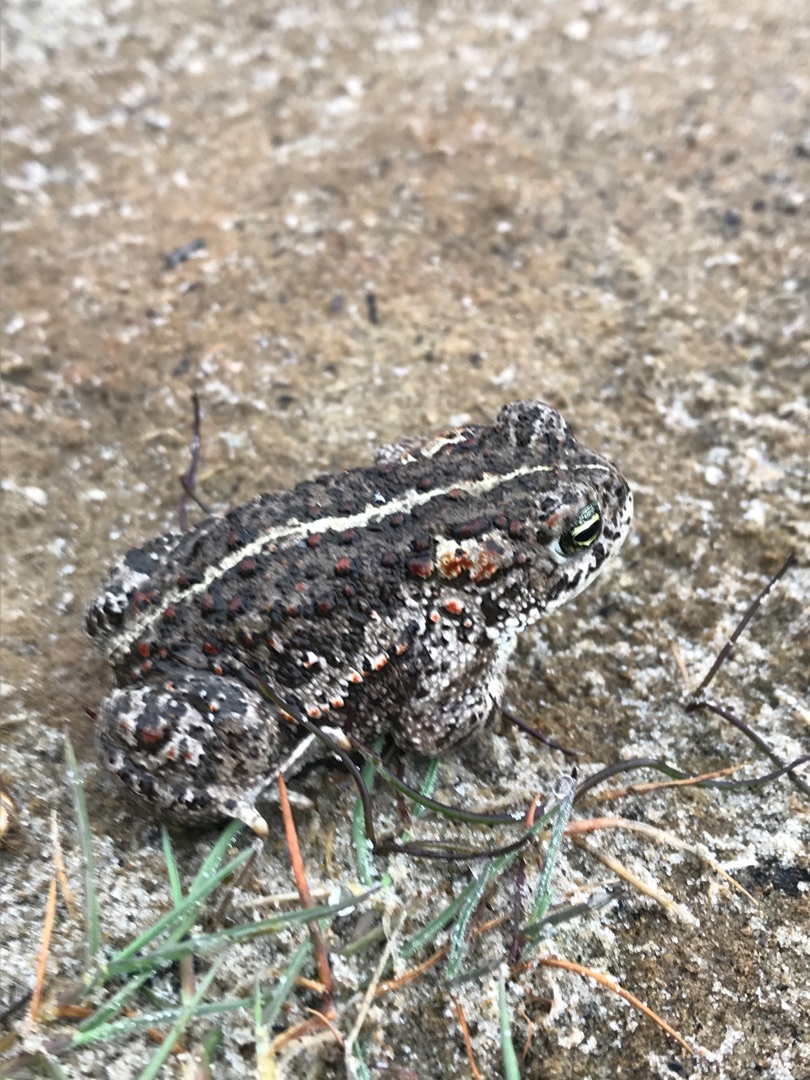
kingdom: Animalia
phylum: Chordata
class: Amphibia
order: Anura
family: Bufonidae
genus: Epidalea
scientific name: Epidalea calamita
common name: Strandtudse
